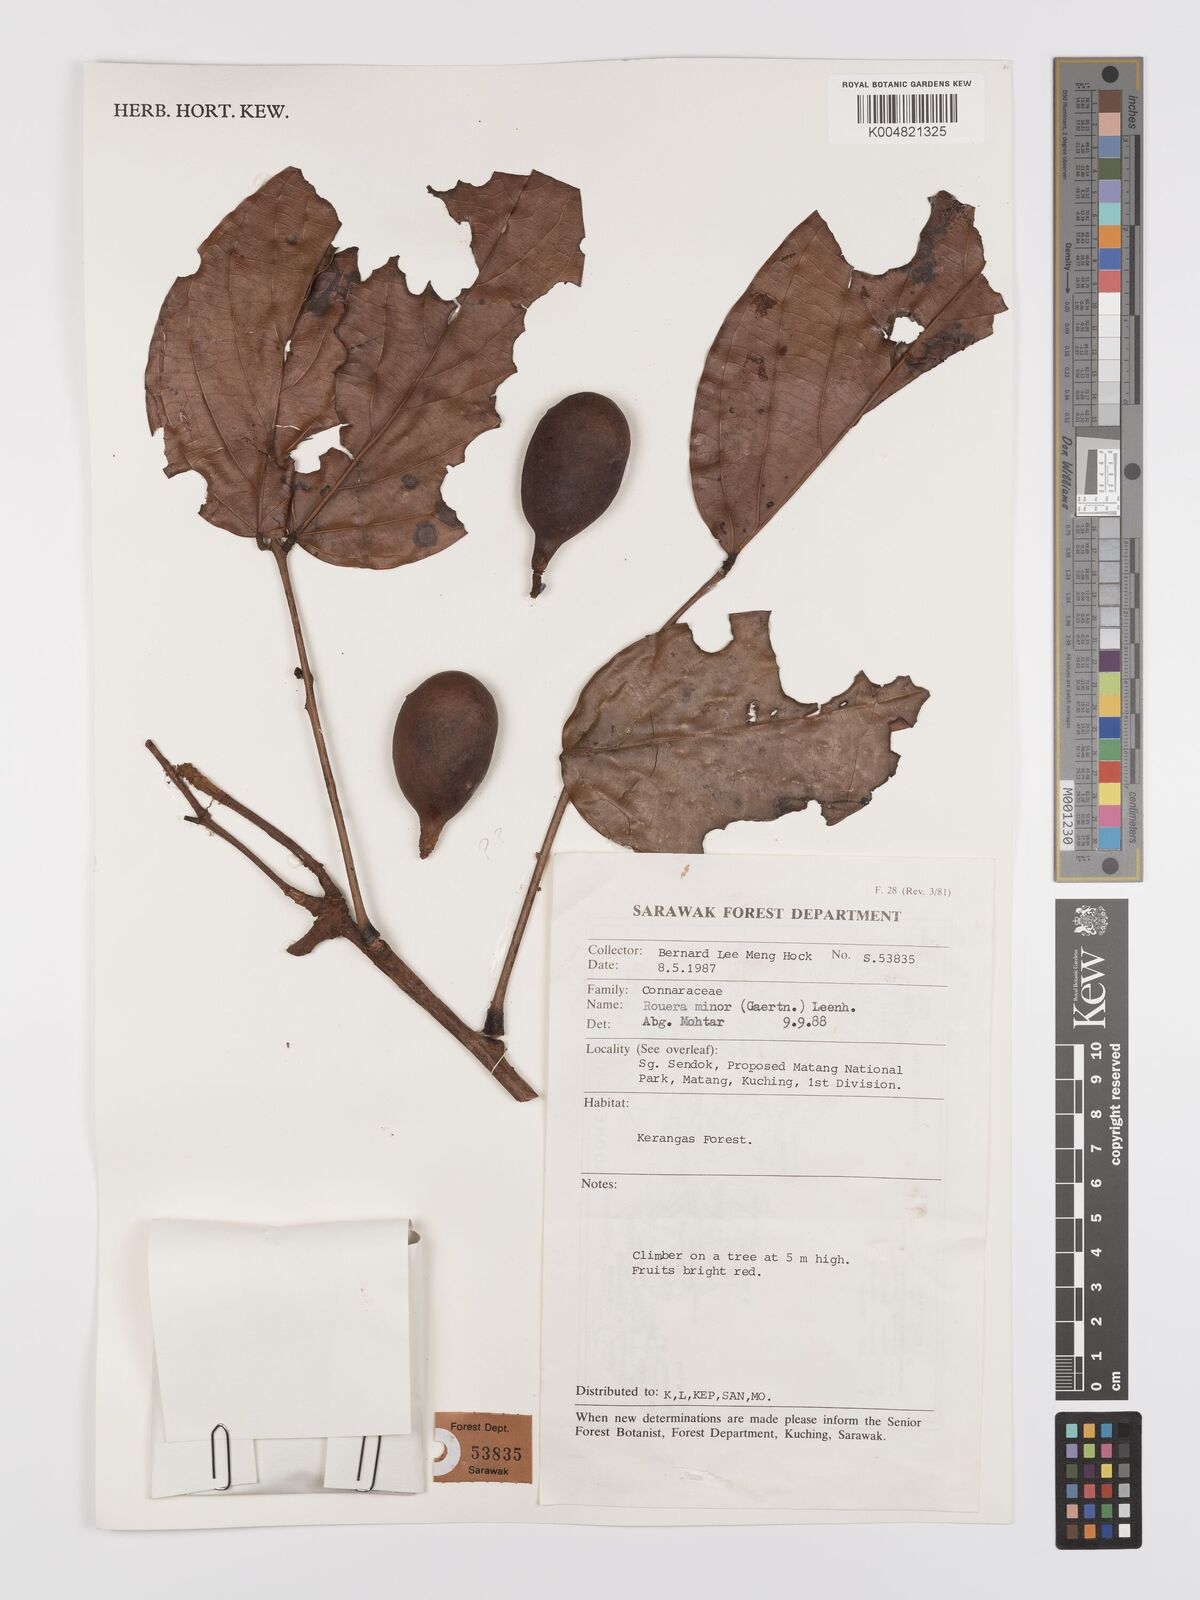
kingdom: Plantae
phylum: Tracheophyta
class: Magnoliopsida
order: Oxalidales
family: Connaraceae
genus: Rourea
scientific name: Rourea minor
